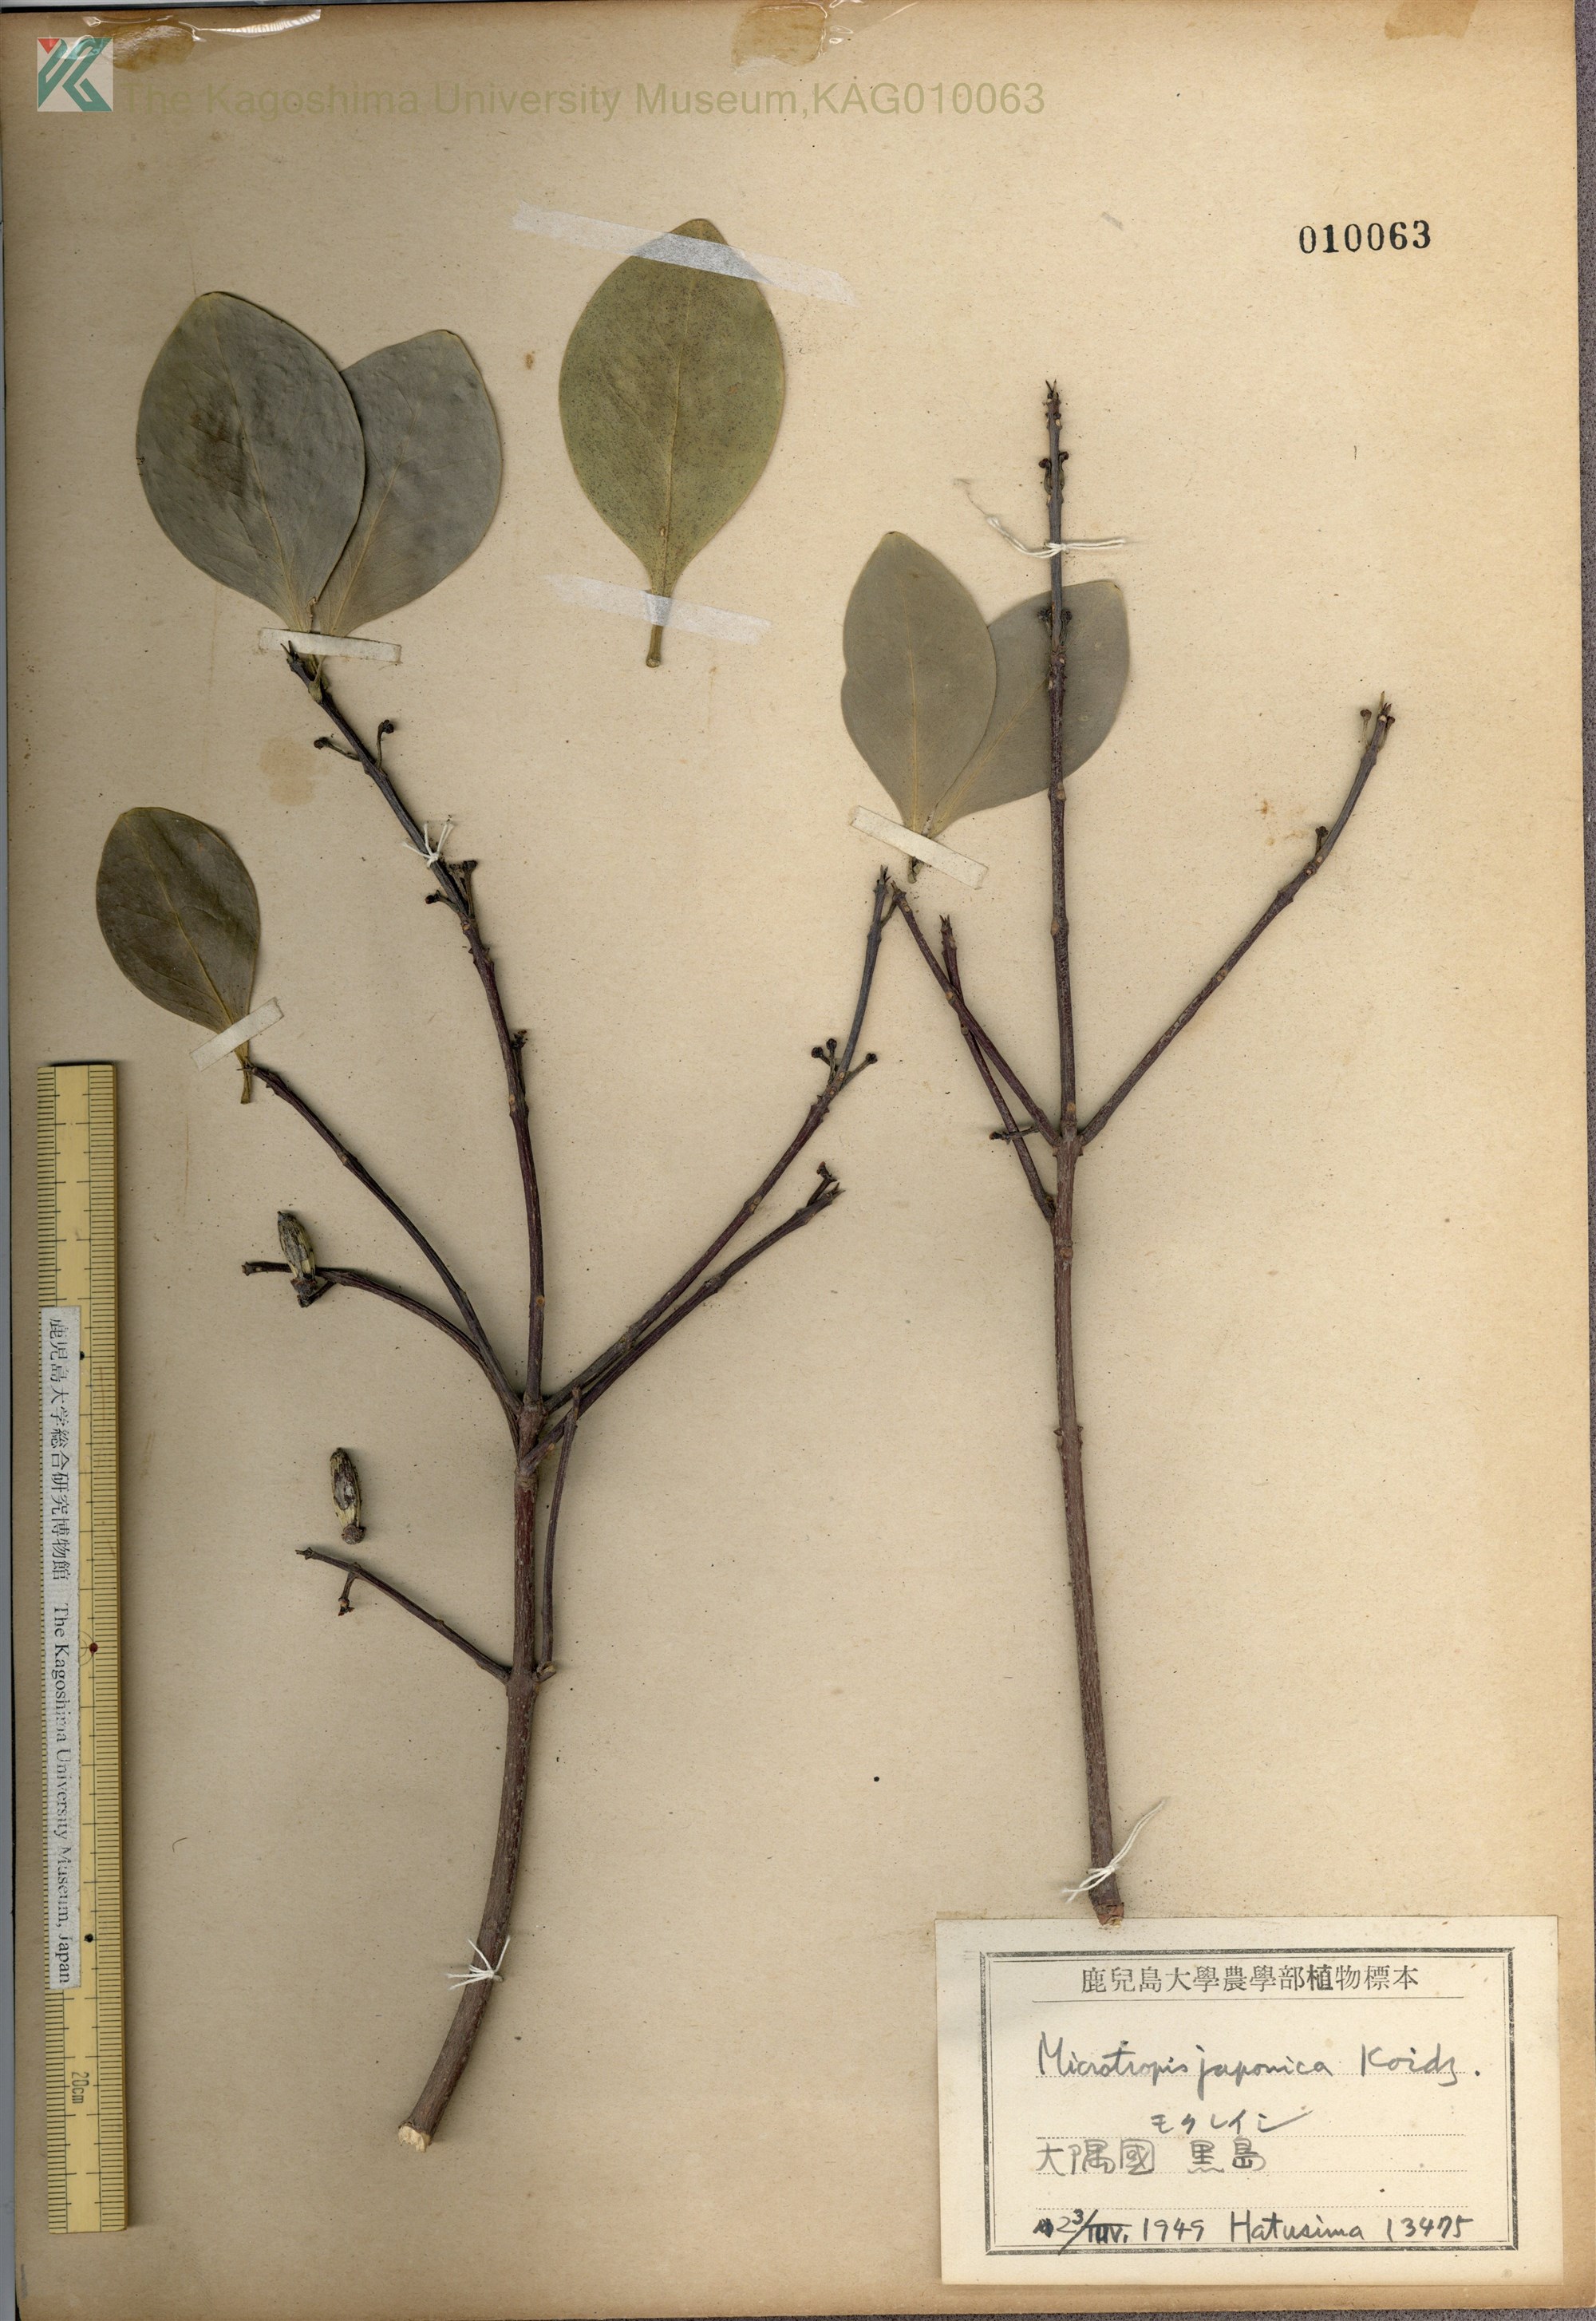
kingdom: Plantae
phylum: Tracheophyta
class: Magnoliopsida
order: Celastrales
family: Celastraceae
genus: Microtropis
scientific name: Microtropis japonica
